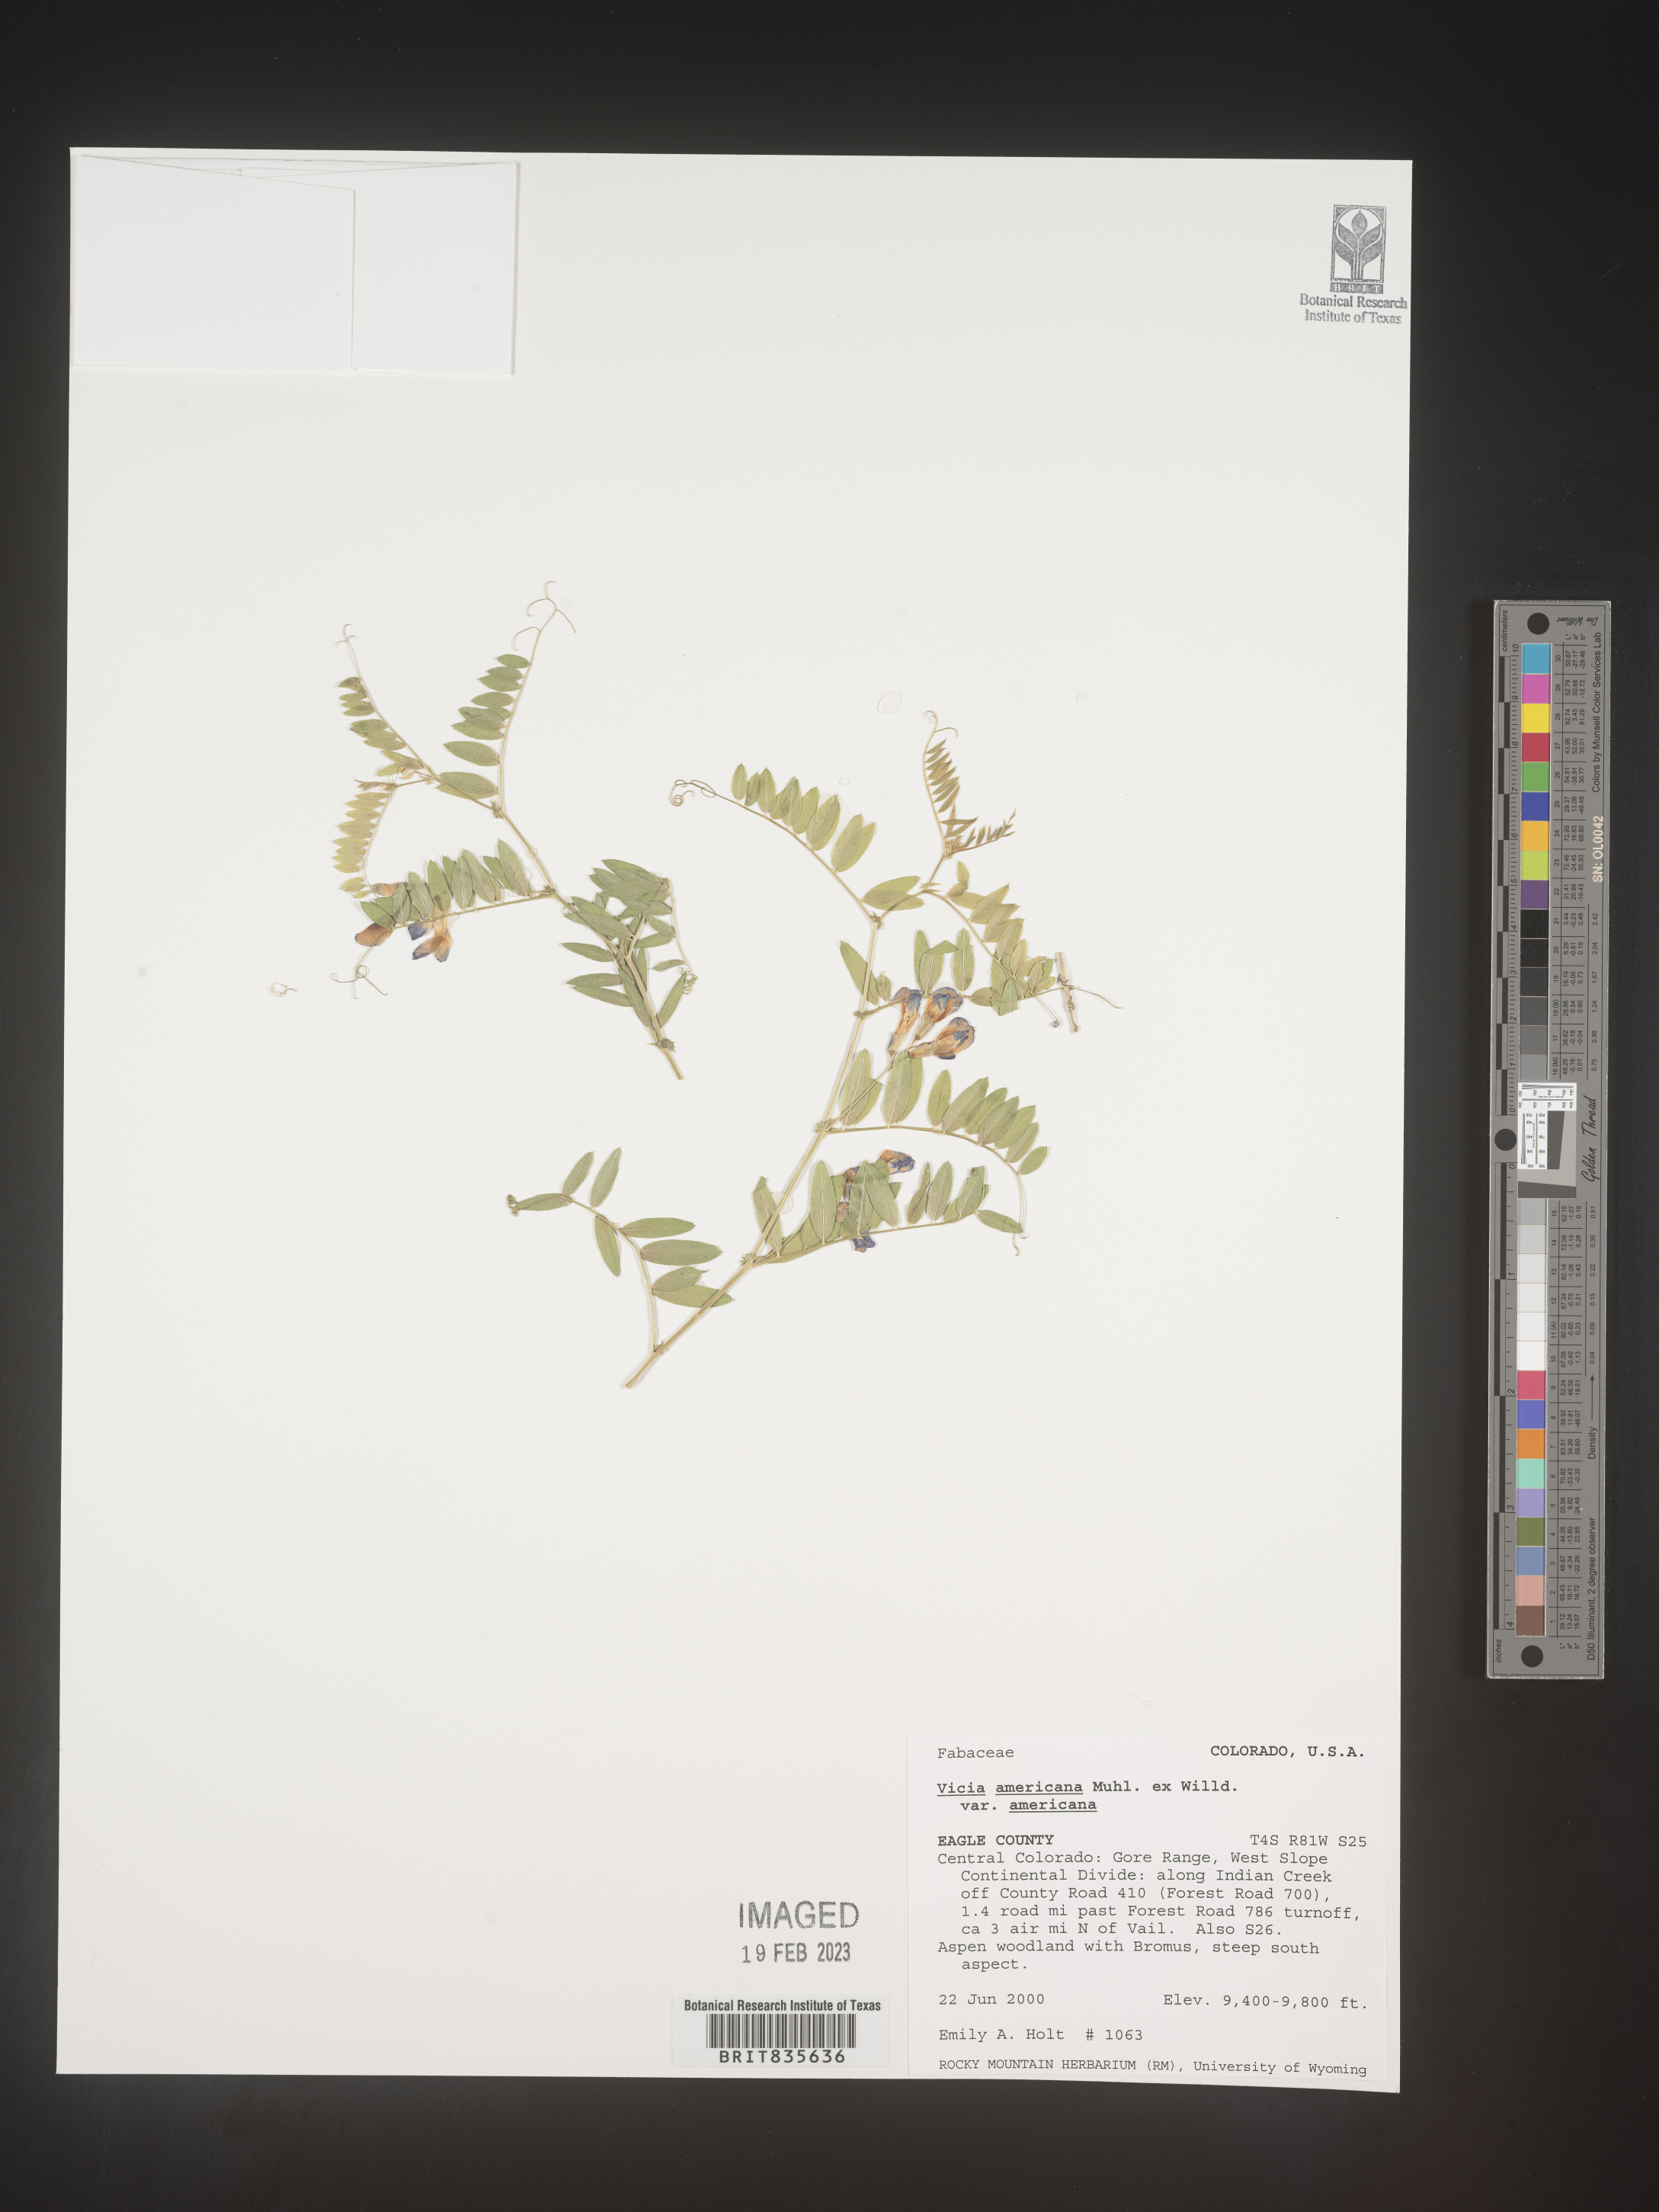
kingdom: Plantae
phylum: Tracheophyta
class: Magnoliopsida
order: Fabales
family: Fabaceae
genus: Vicia
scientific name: Vicia americana
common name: American vetch
